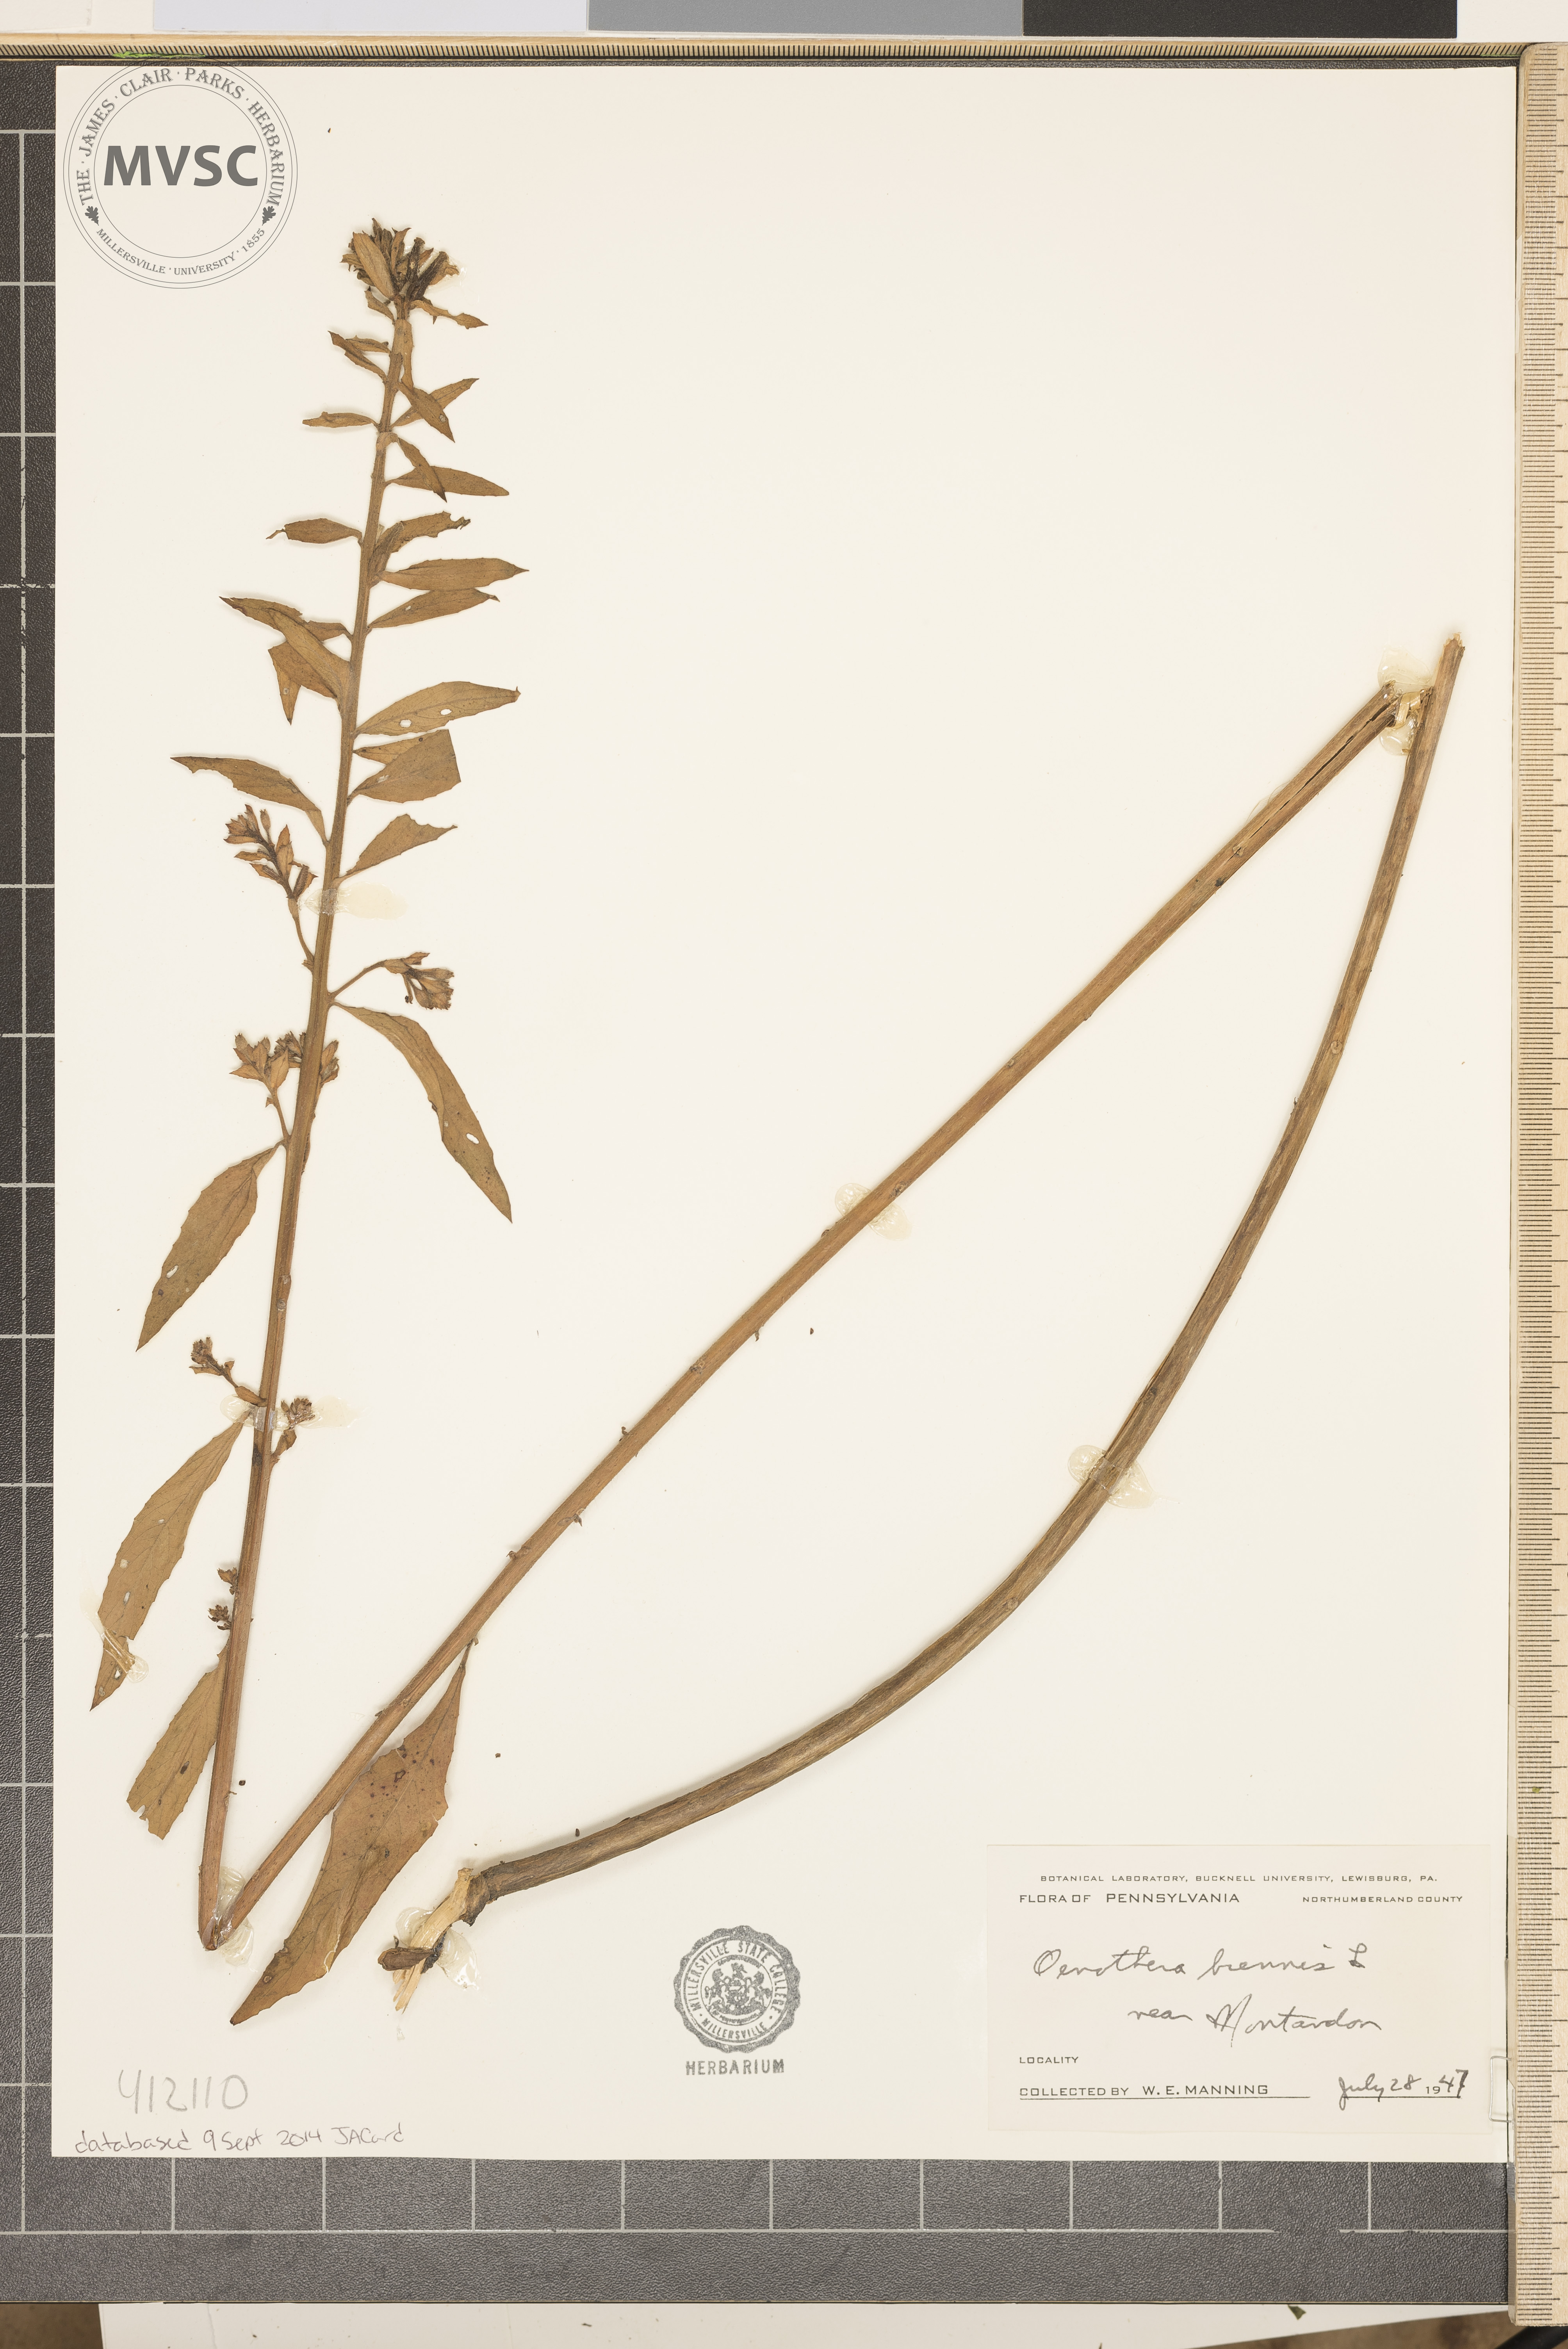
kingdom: Plantae
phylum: Tracheophyta
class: Magnoliopsida
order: Myrtales
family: Onagraceae
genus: Oenothera
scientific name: Oenothera biennis
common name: Common evening-primrose
